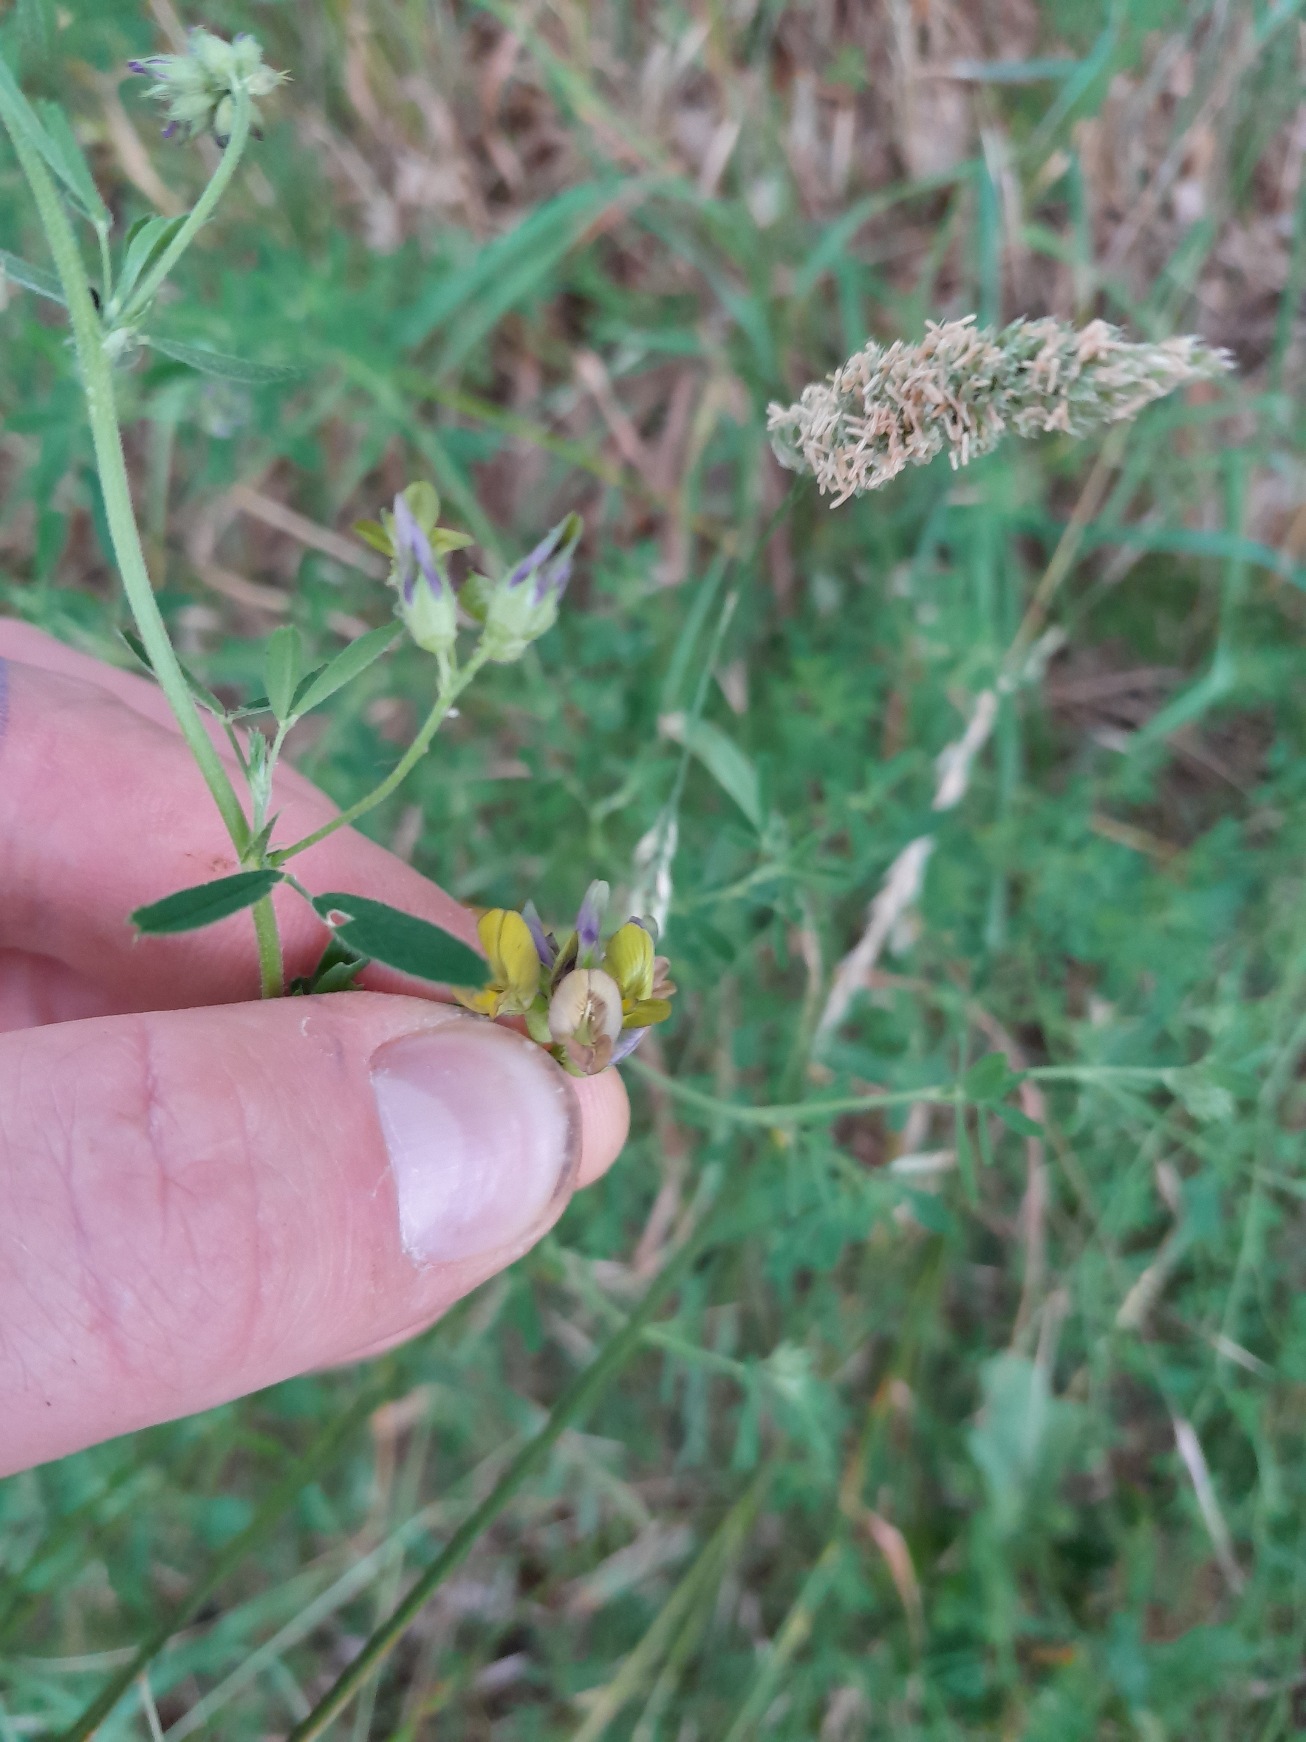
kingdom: Plantae
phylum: Tracheophyta
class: Magnoliopsida
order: Fabales
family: Fabaceae
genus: Medicago
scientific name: Medicago varia
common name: Sand-lucerne
